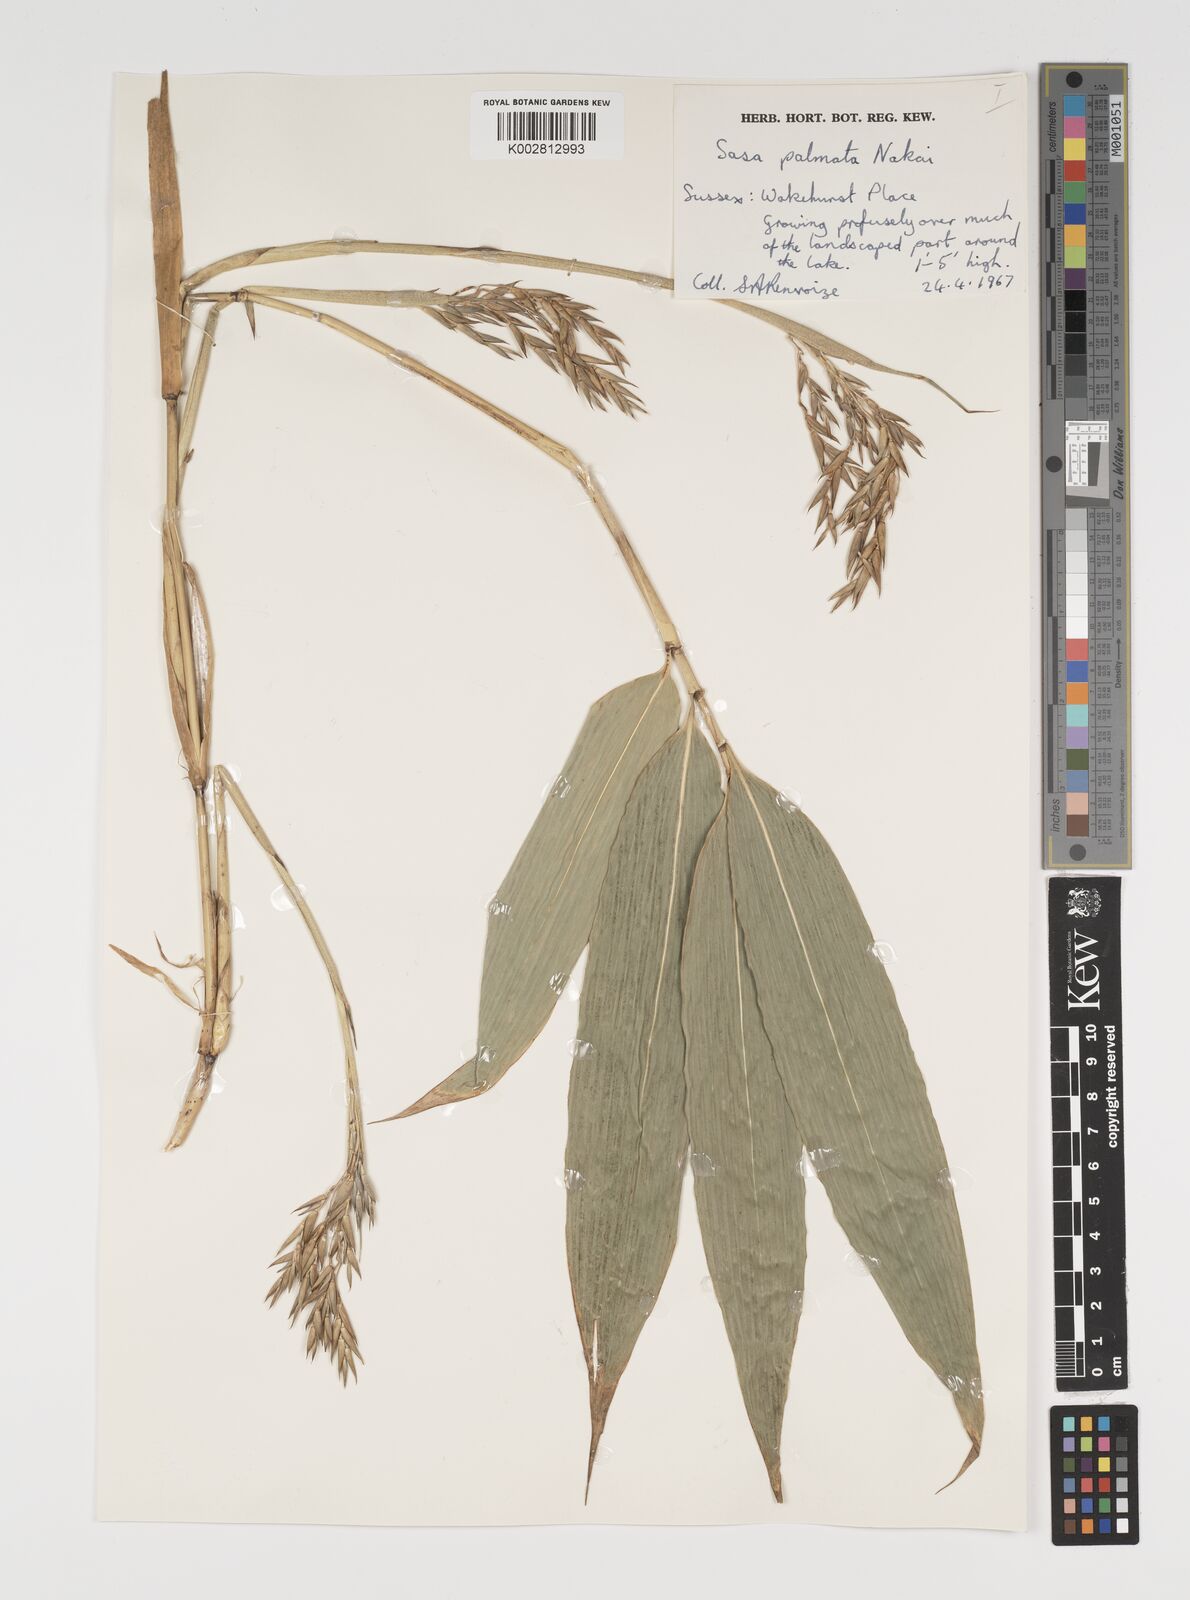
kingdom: Plantae
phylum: Tracheophyta
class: Liliopsida
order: Poales
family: Poaceae
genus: Sasa
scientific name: Sasa palmata
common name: Broad-leaved bamboo
